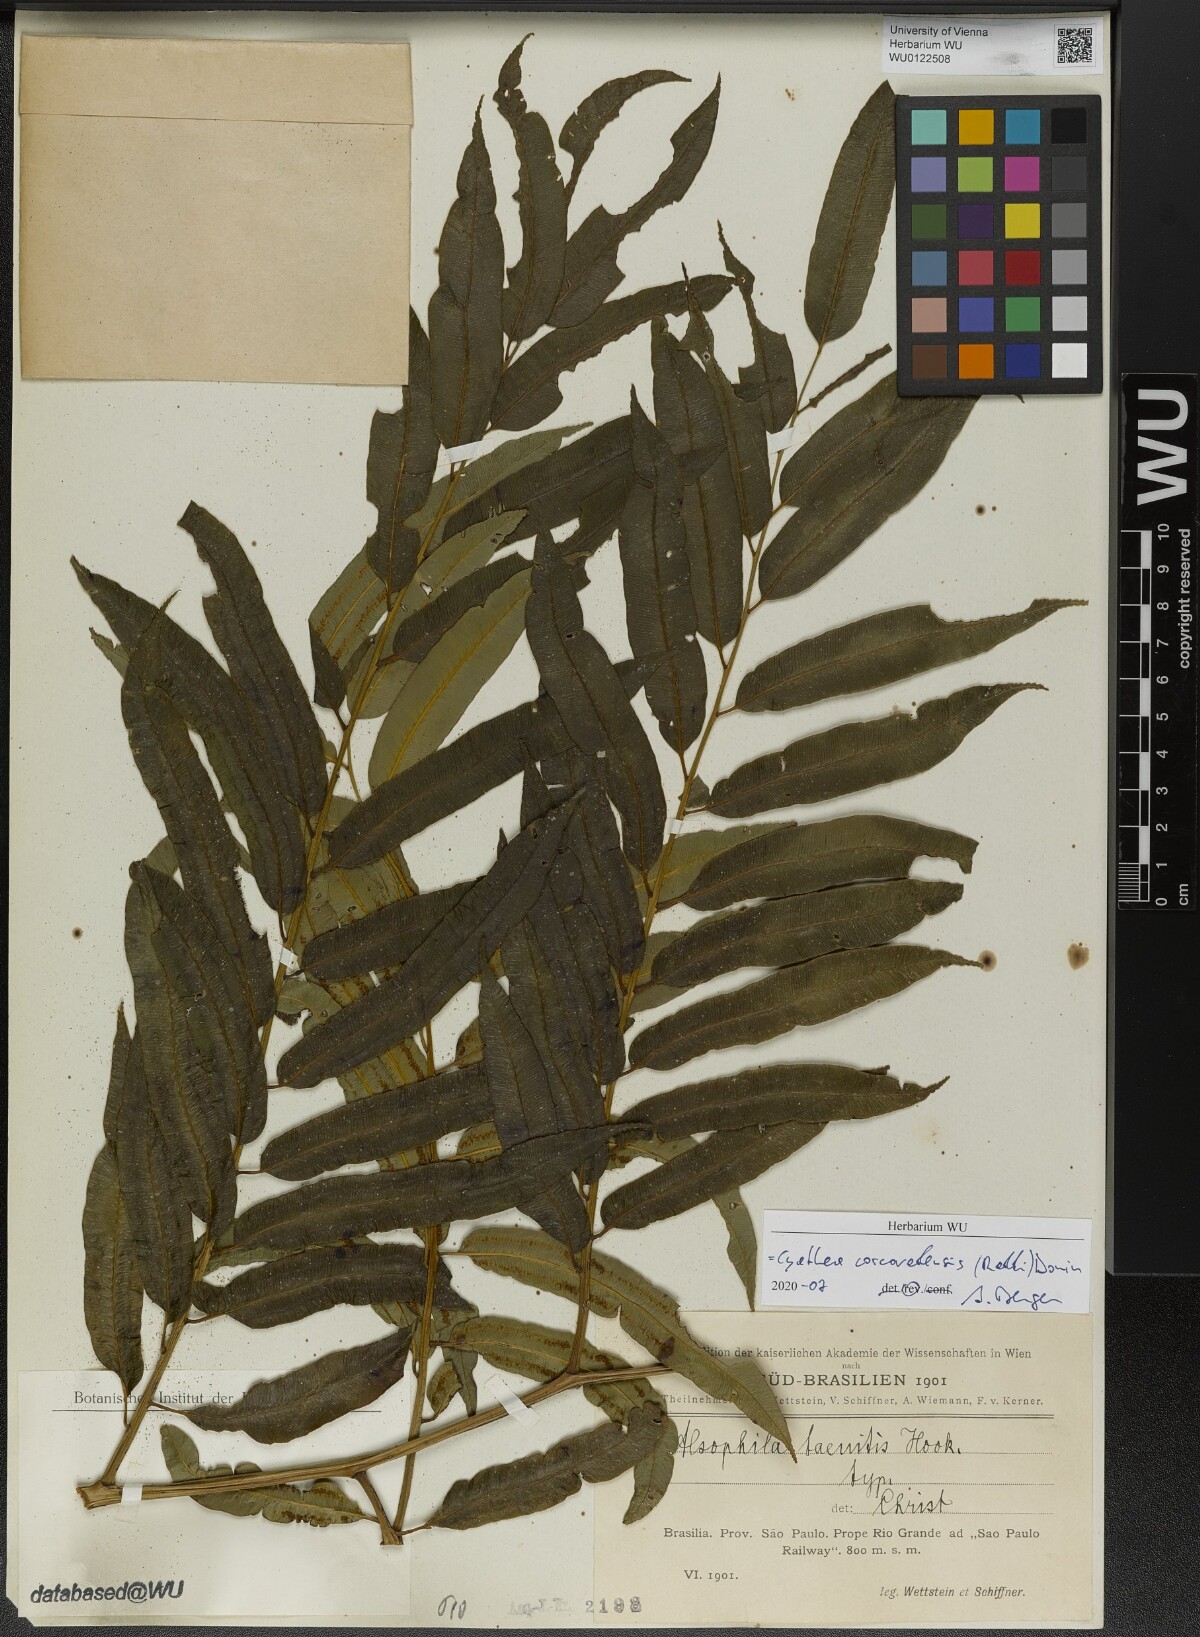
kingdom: Plantae
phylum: Tracheophyta
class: Polypodiopsida
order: Cyatheales
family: Cyatheaceae
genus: Cyathea
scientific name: Cyathea corcovadensis
